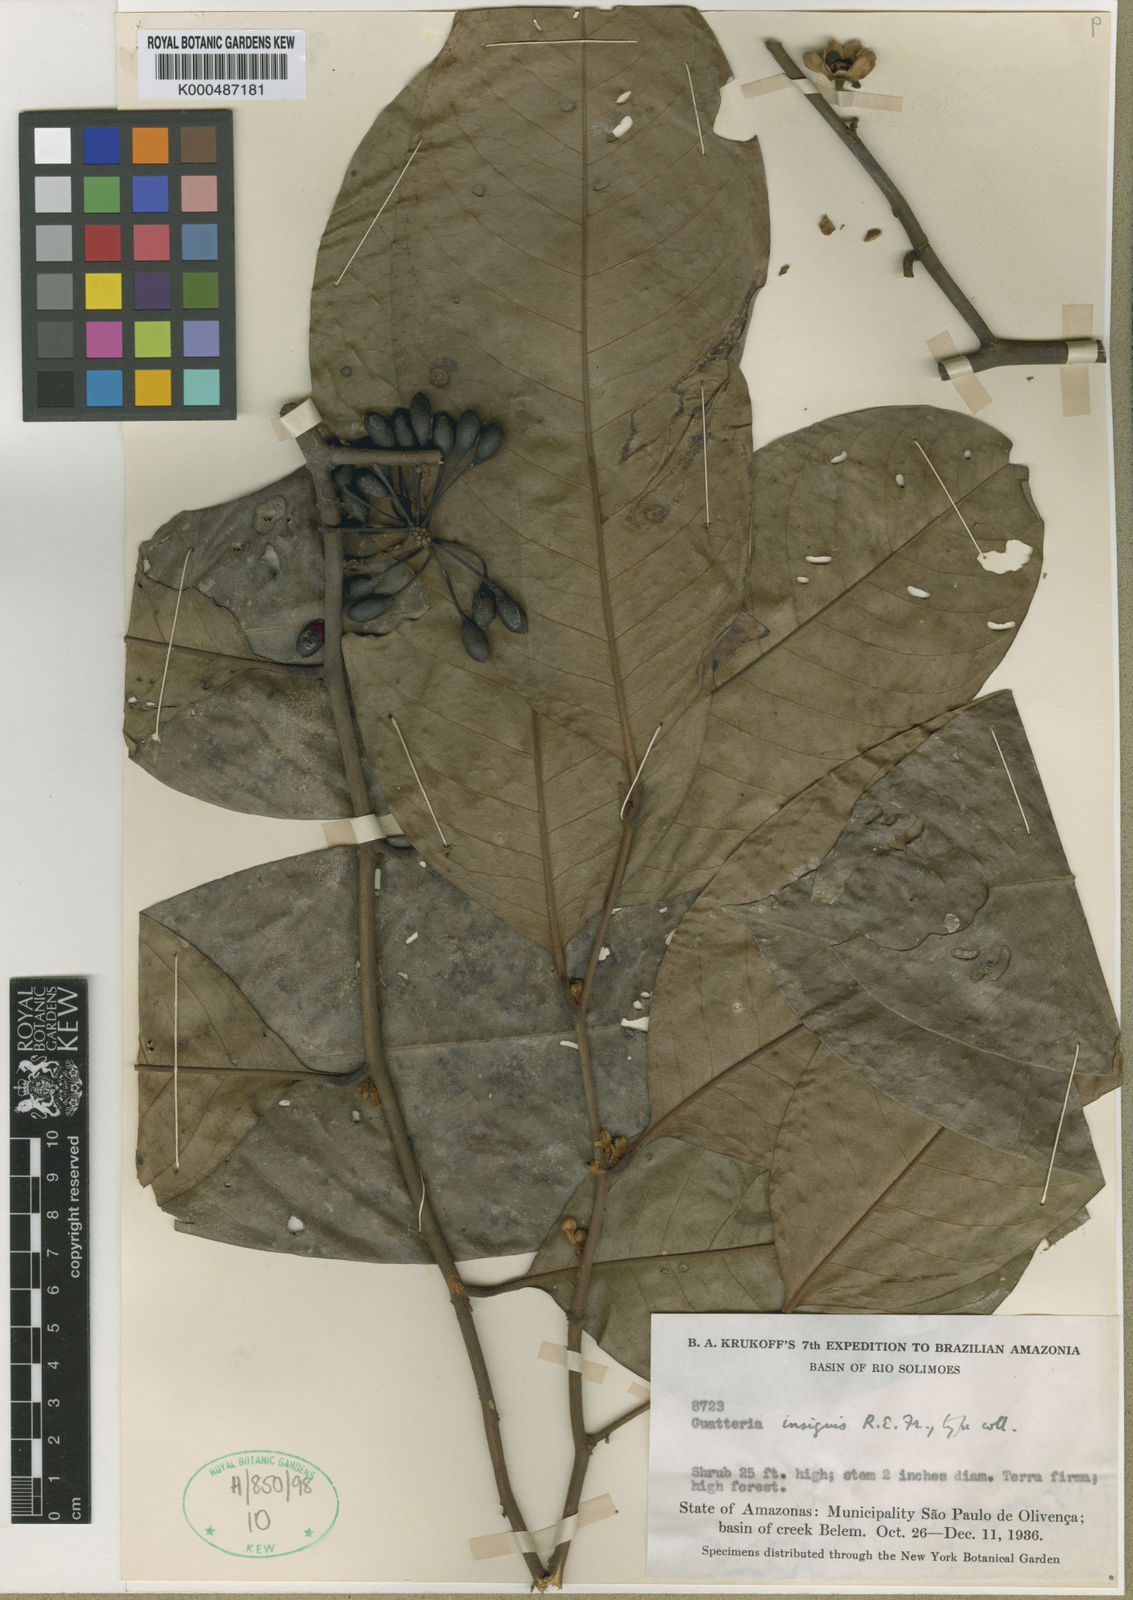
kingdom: Plantae
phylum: Tracheophyta
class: Magnoliopsida
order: Magnoliales
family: Annonaceae
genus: Guatteria
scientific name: Guatteria insignis
